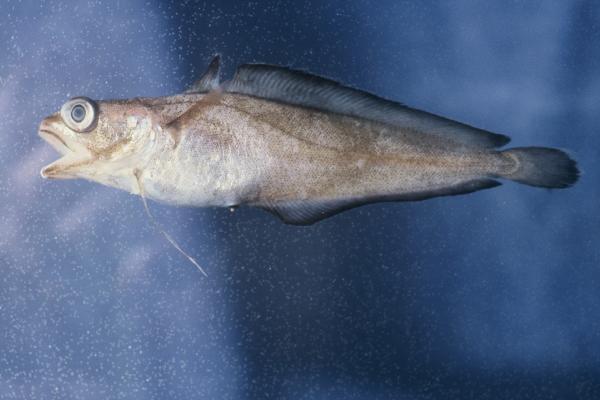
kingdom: Animalia
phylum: Chordata
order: Gadiformes
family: Lotidae
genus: Brosme
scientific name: Brosme brosme
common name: Cusk
